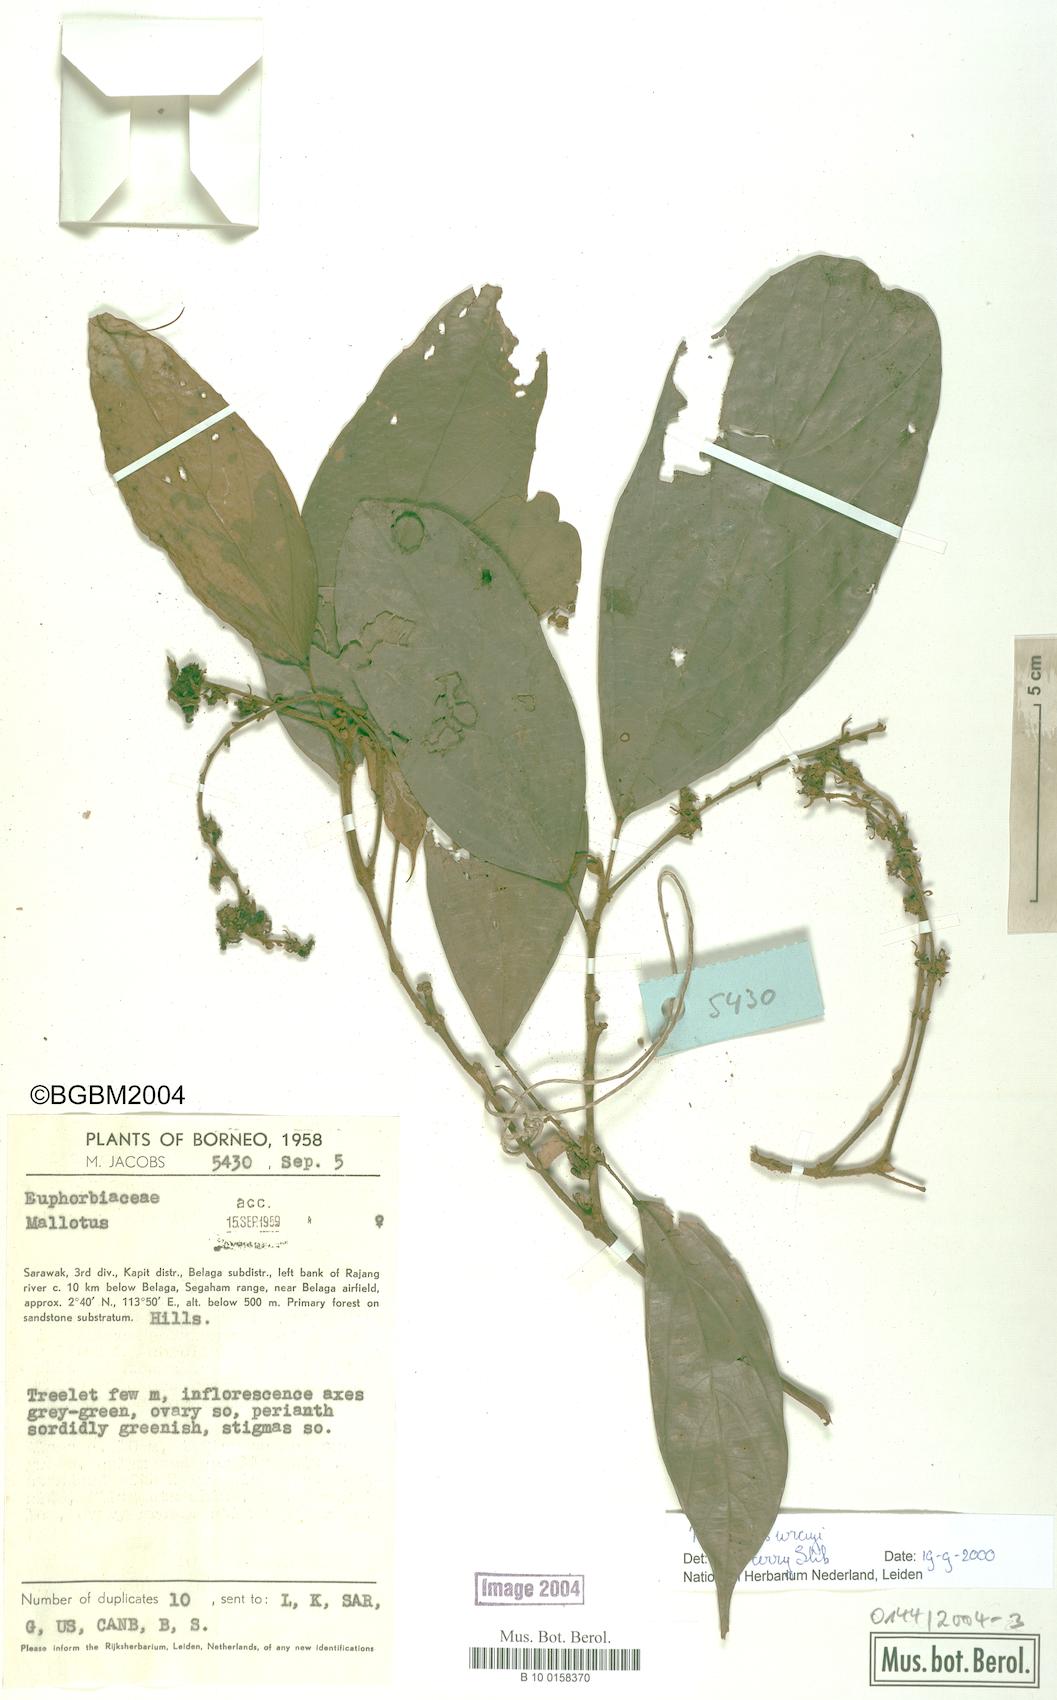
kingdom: Plantae
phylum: Tracheophyta
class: Magnoliopsida
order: Malpighiales
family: Euphorbiaceae
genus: Mallotus
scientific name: Mallotus wrayi
